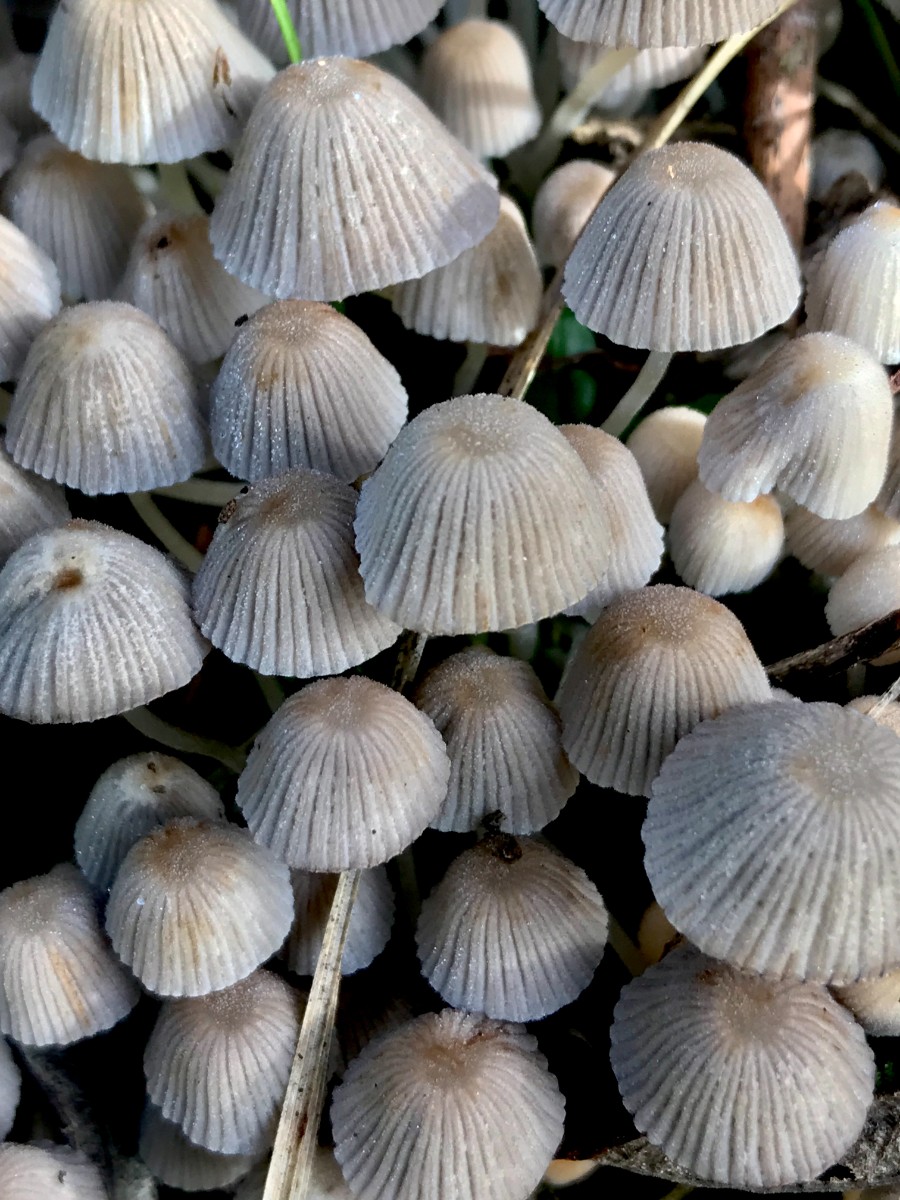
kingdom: Fungi
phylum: Basidiomycota
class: Agaricomycetes
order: Agaricales
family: Psathyrellaceae
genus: Coprinellus
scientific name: Coprinellus disseminatus
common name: bredsået blækhat
